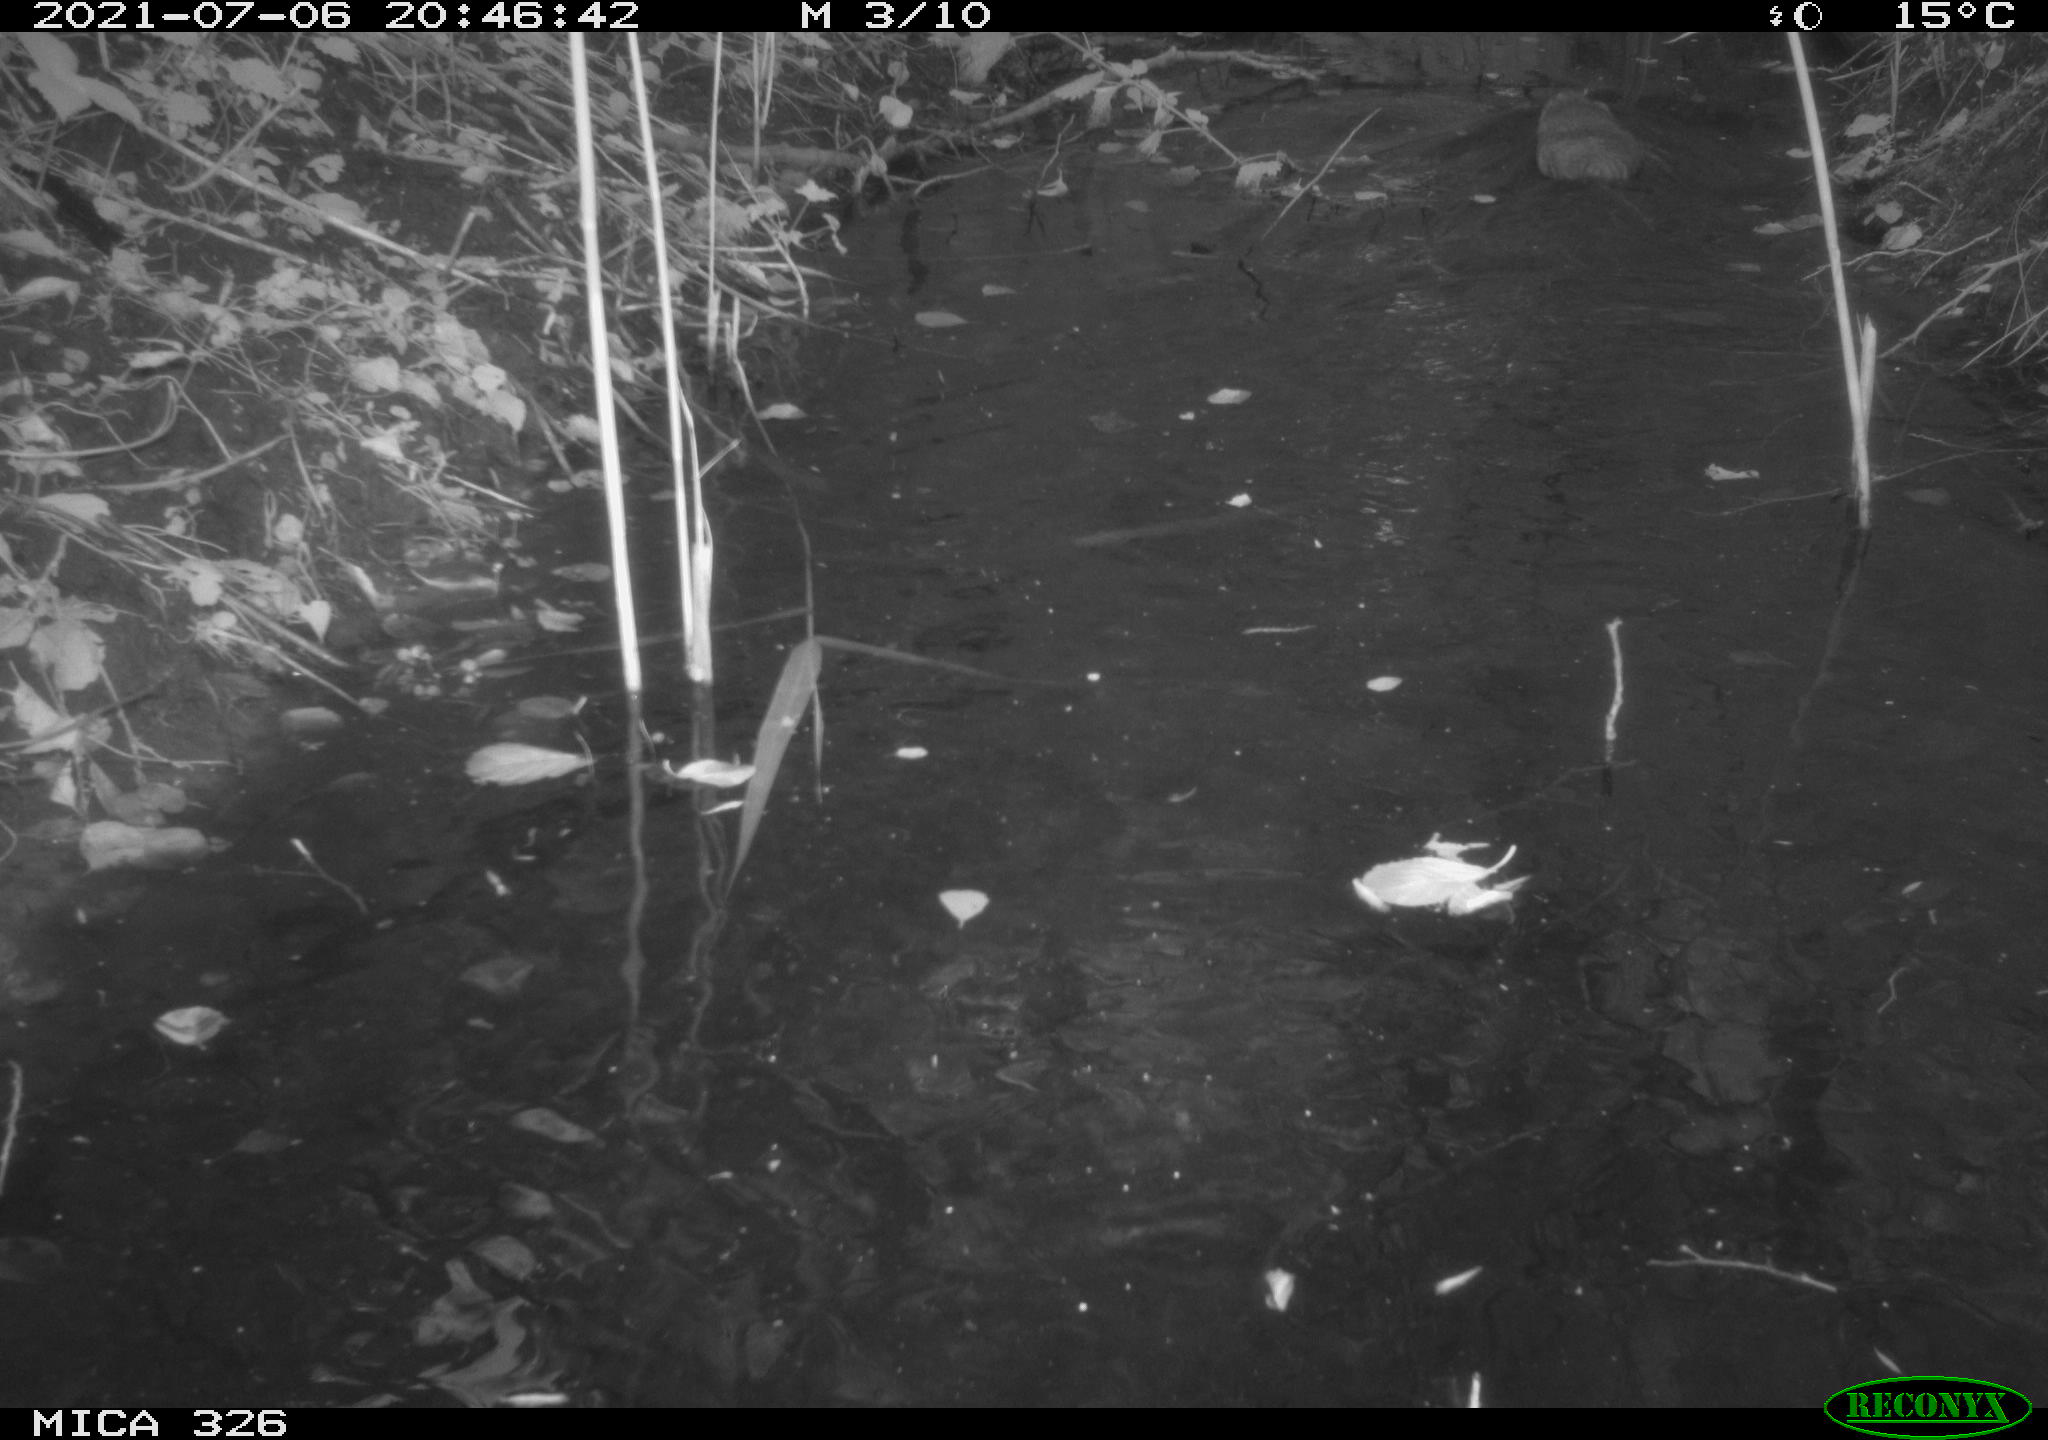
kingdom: Animalia
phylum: Chordata
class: Mammalia
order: Rodentia
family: Cricetidae
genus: Ondatra
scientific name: Ondatra zibethicus
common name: Muskrat
